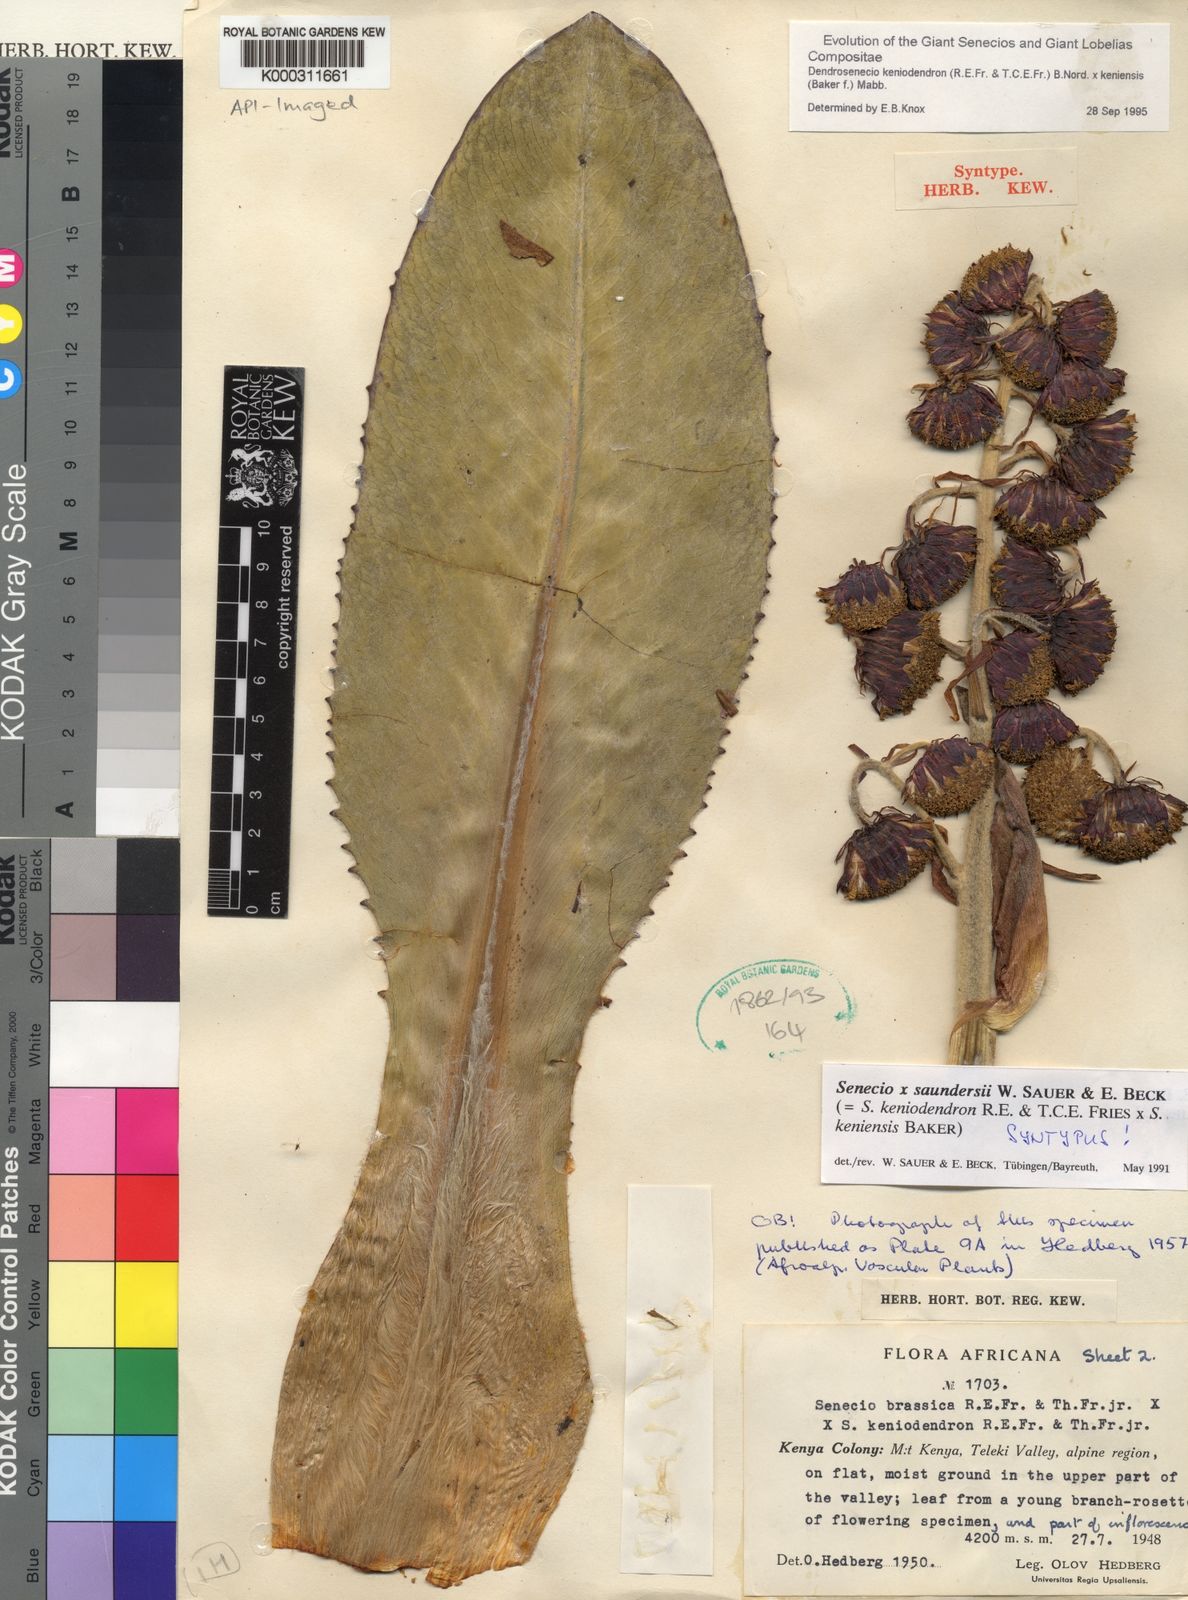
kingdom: Plantae
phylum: Tracheophyta
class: Magnoliopsida
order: Asterales
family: Asteraceae
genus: Dendrosenecio
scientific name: Dendrosenecio keniodendron
